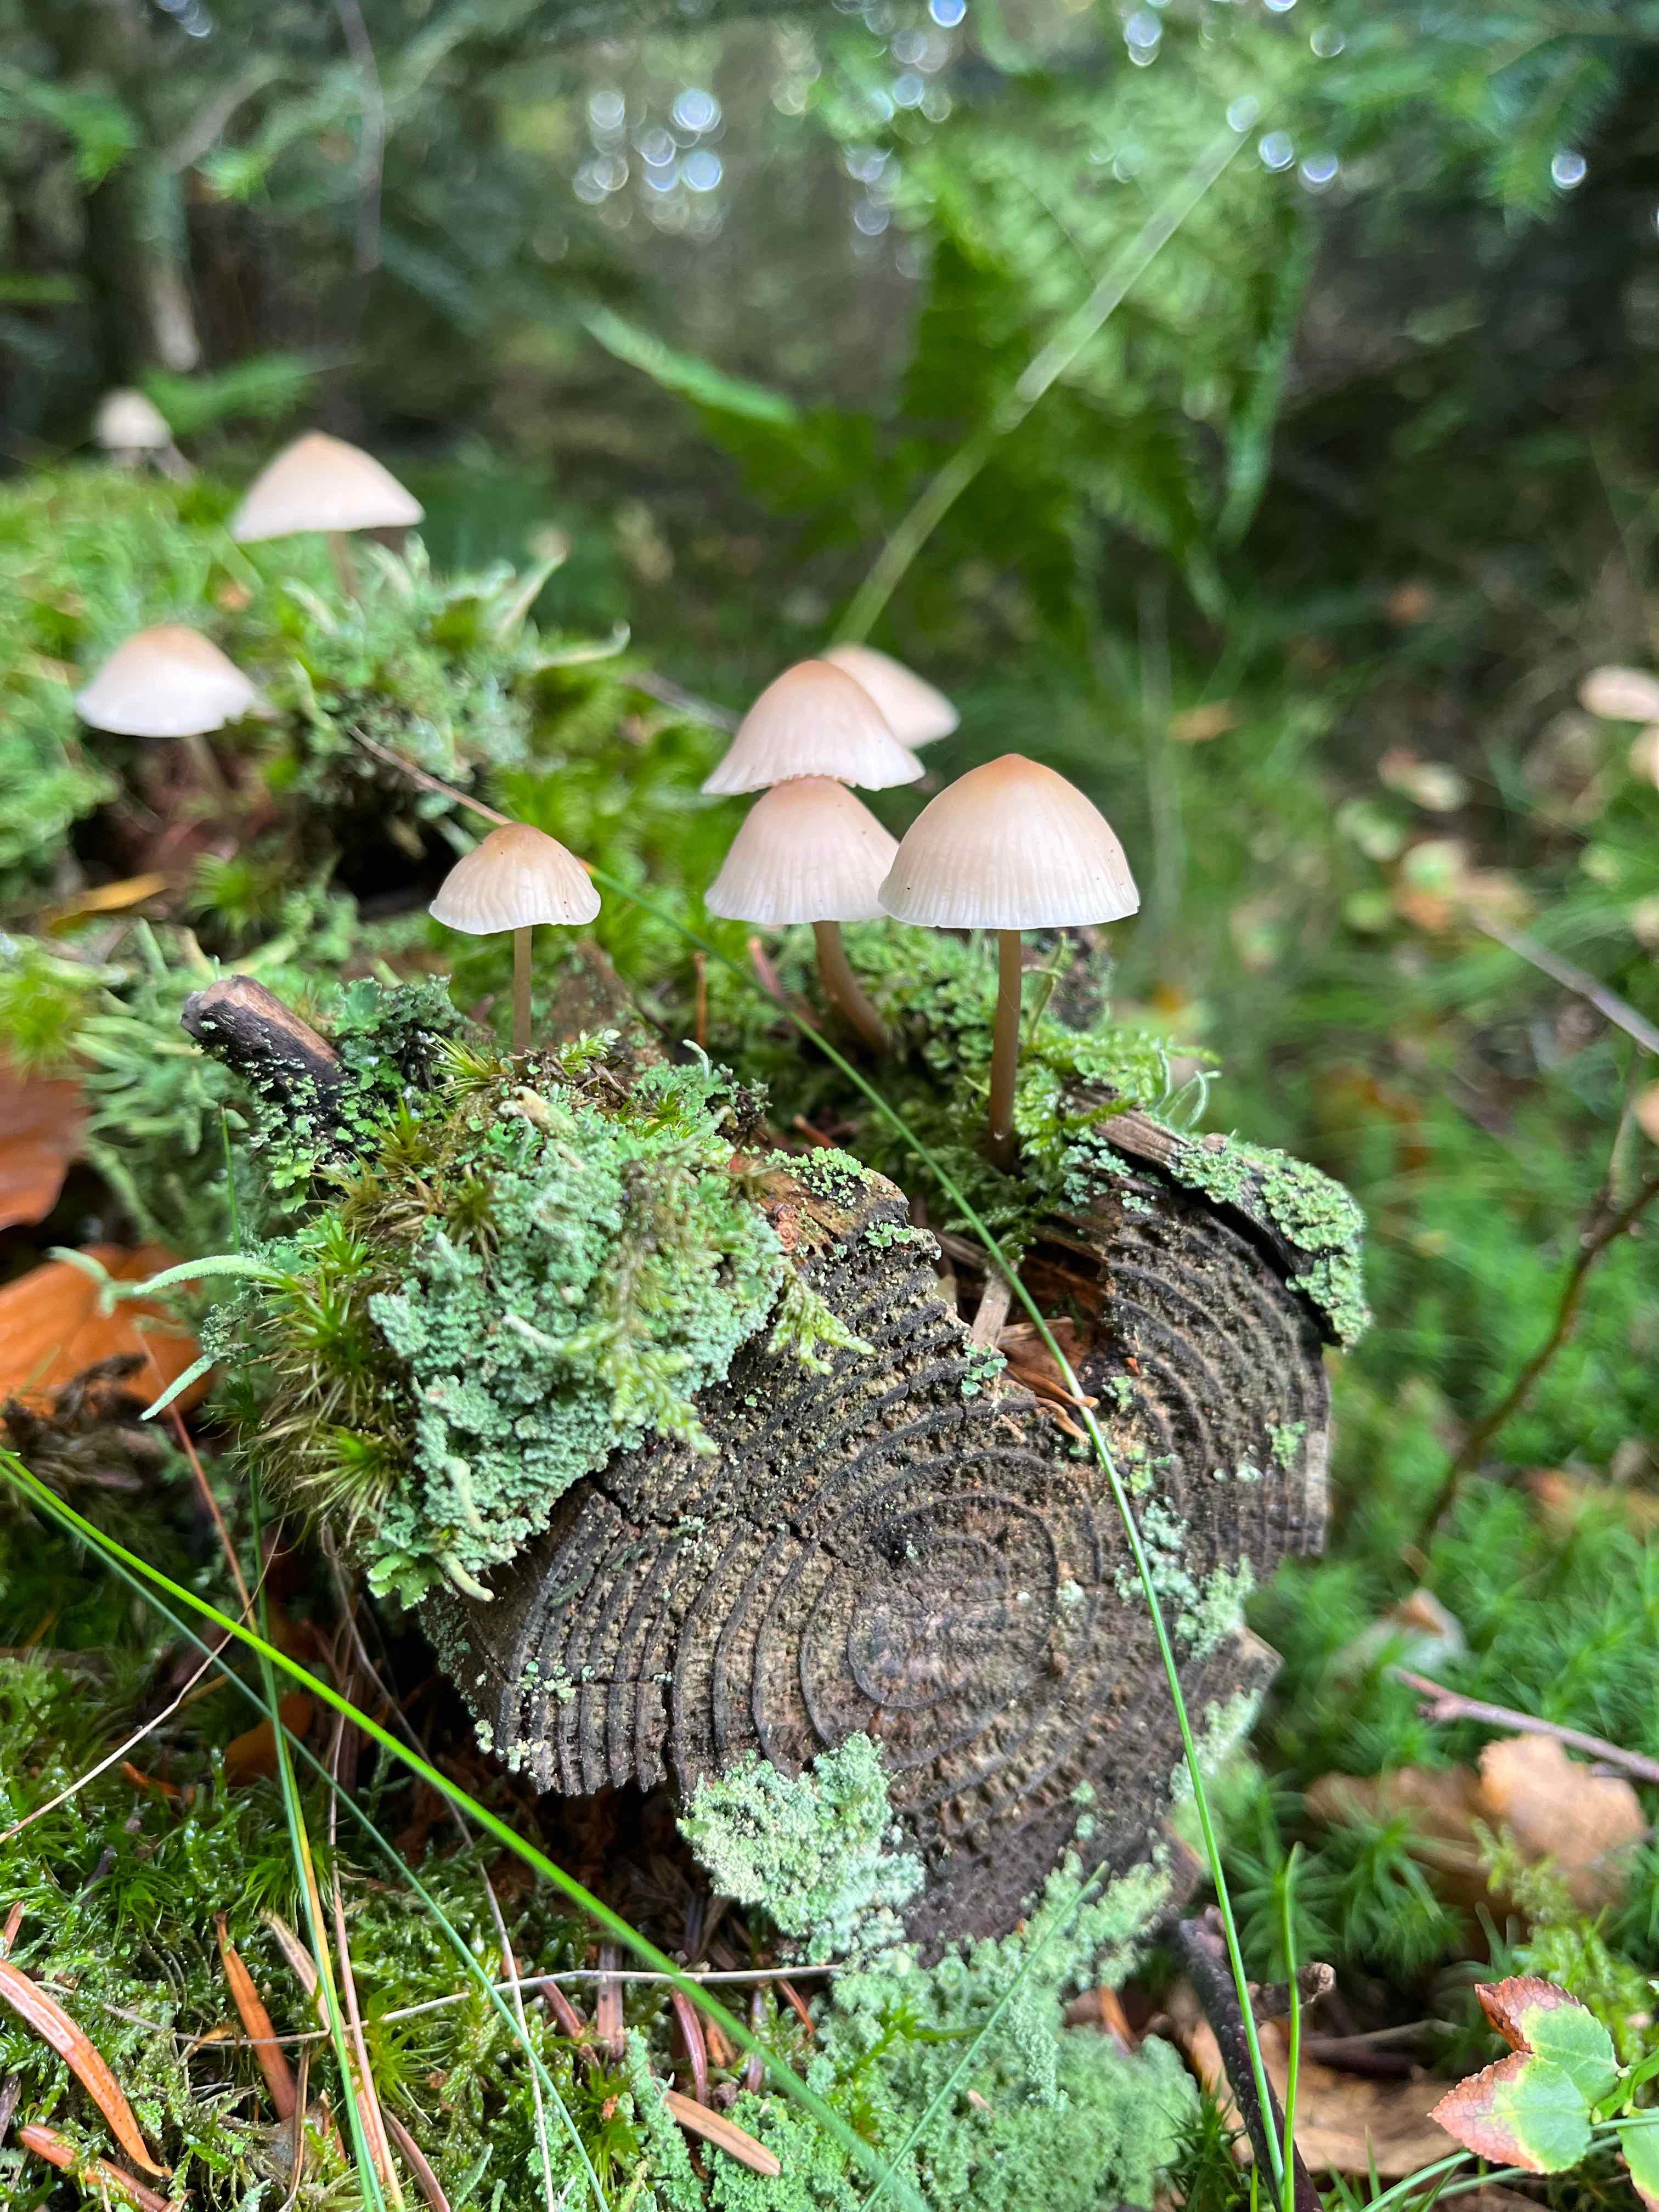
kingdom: Fungi
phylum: Basidiomycota
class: Agaricomycetes
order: Agaricales
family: Mycenaceae
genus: Mycena
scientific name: Mycena
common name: huesvamp
